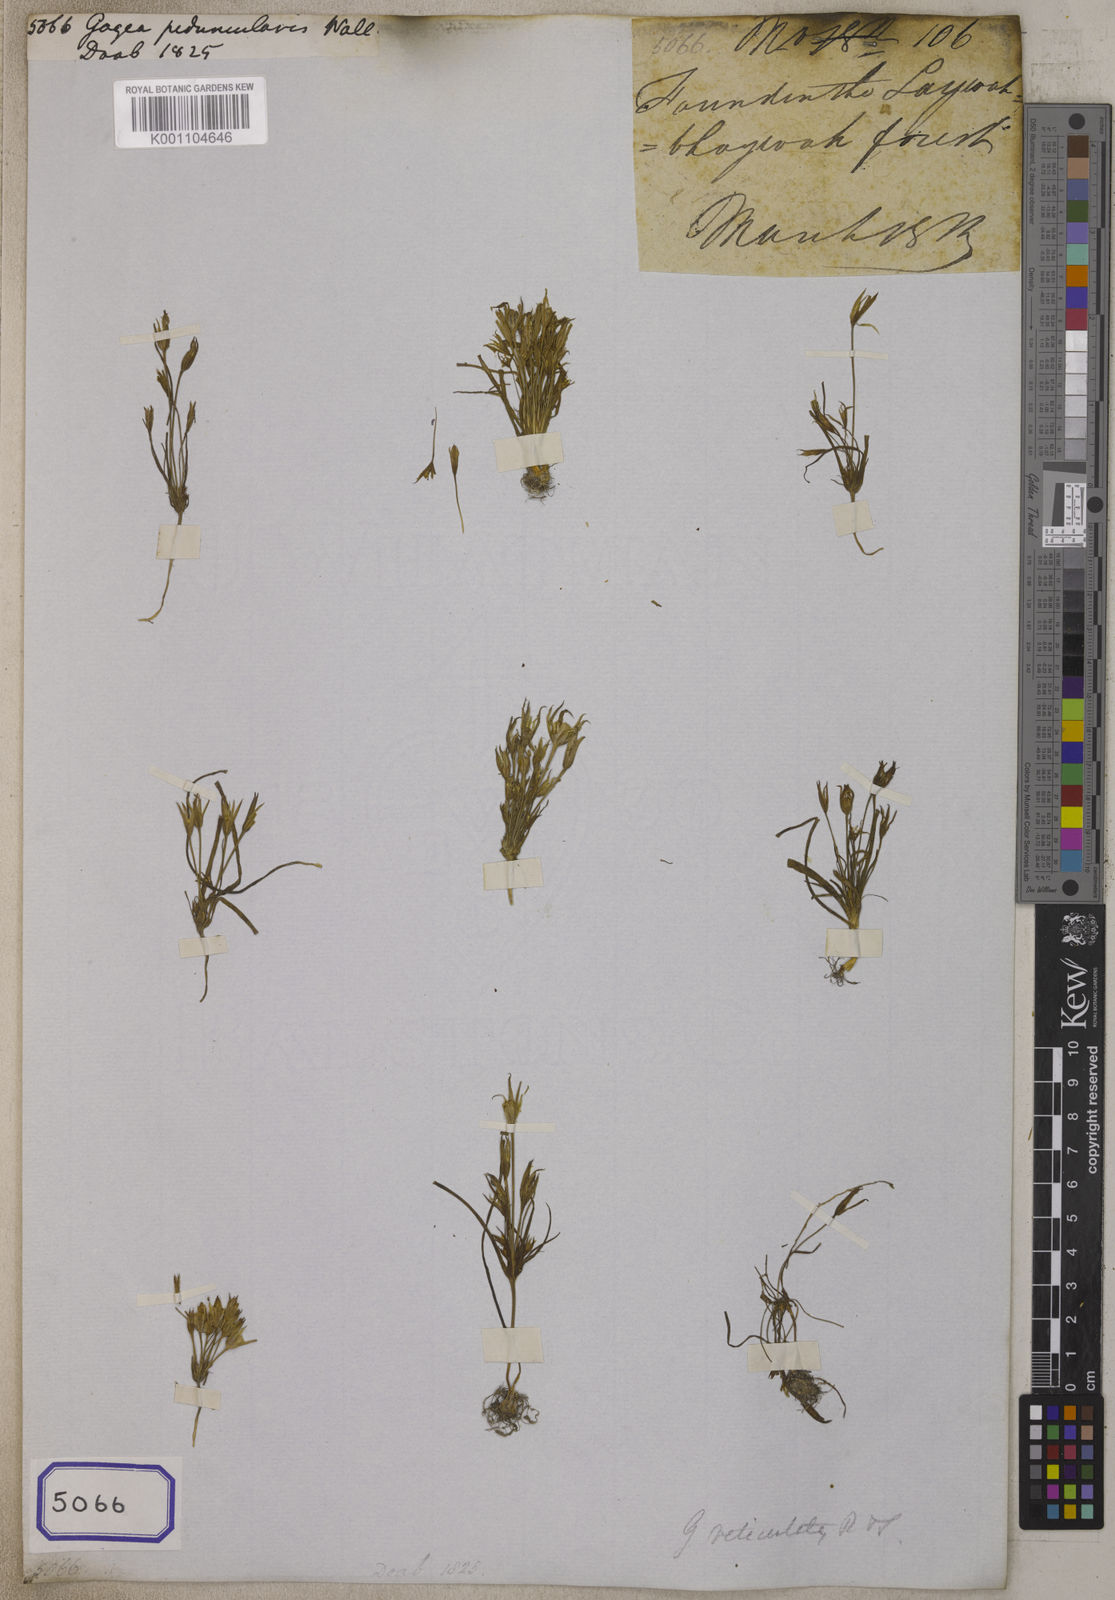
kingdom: Plantae
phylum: Tracheophyta
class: Liliopsida
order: Liliales
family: Liliaceae
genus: Gagea
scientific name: Gagea
